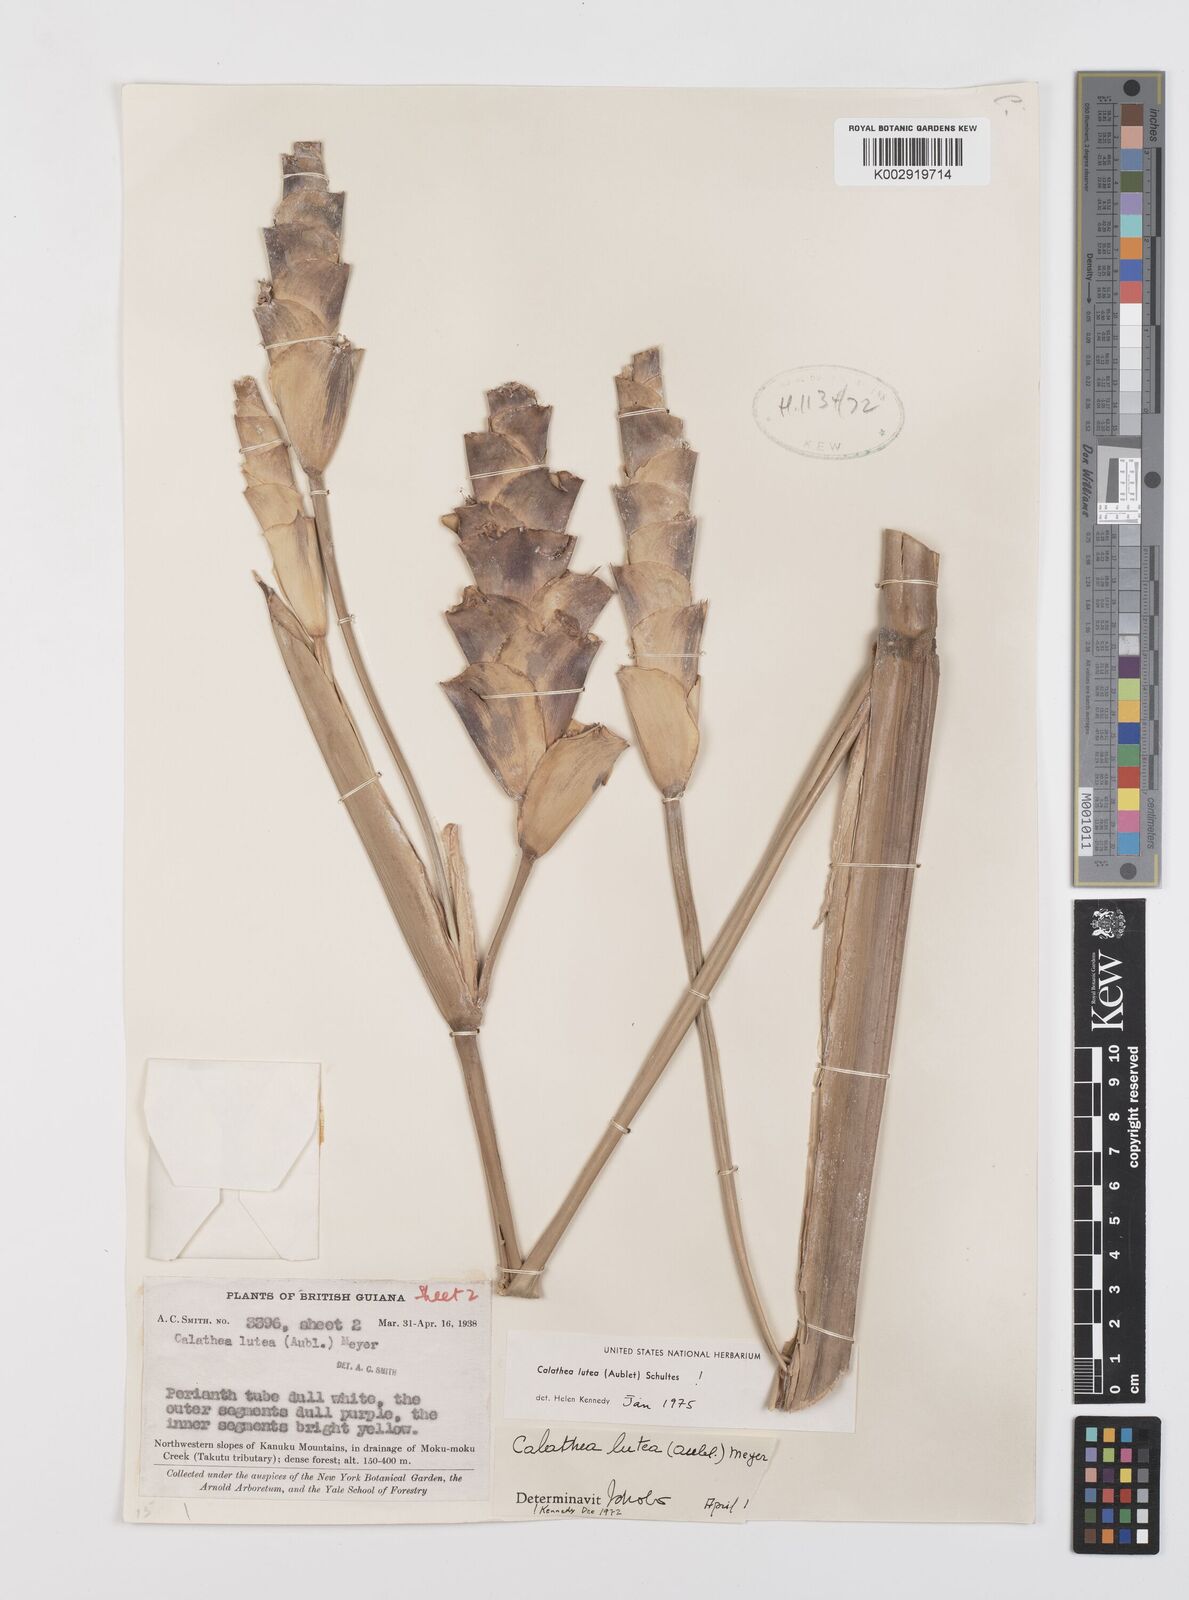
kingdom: Plantae
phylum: Tracheophyta
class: Liliopsida
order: Zingiberales
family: Marantaceae
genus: Calathea
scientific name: Calathea lutea
